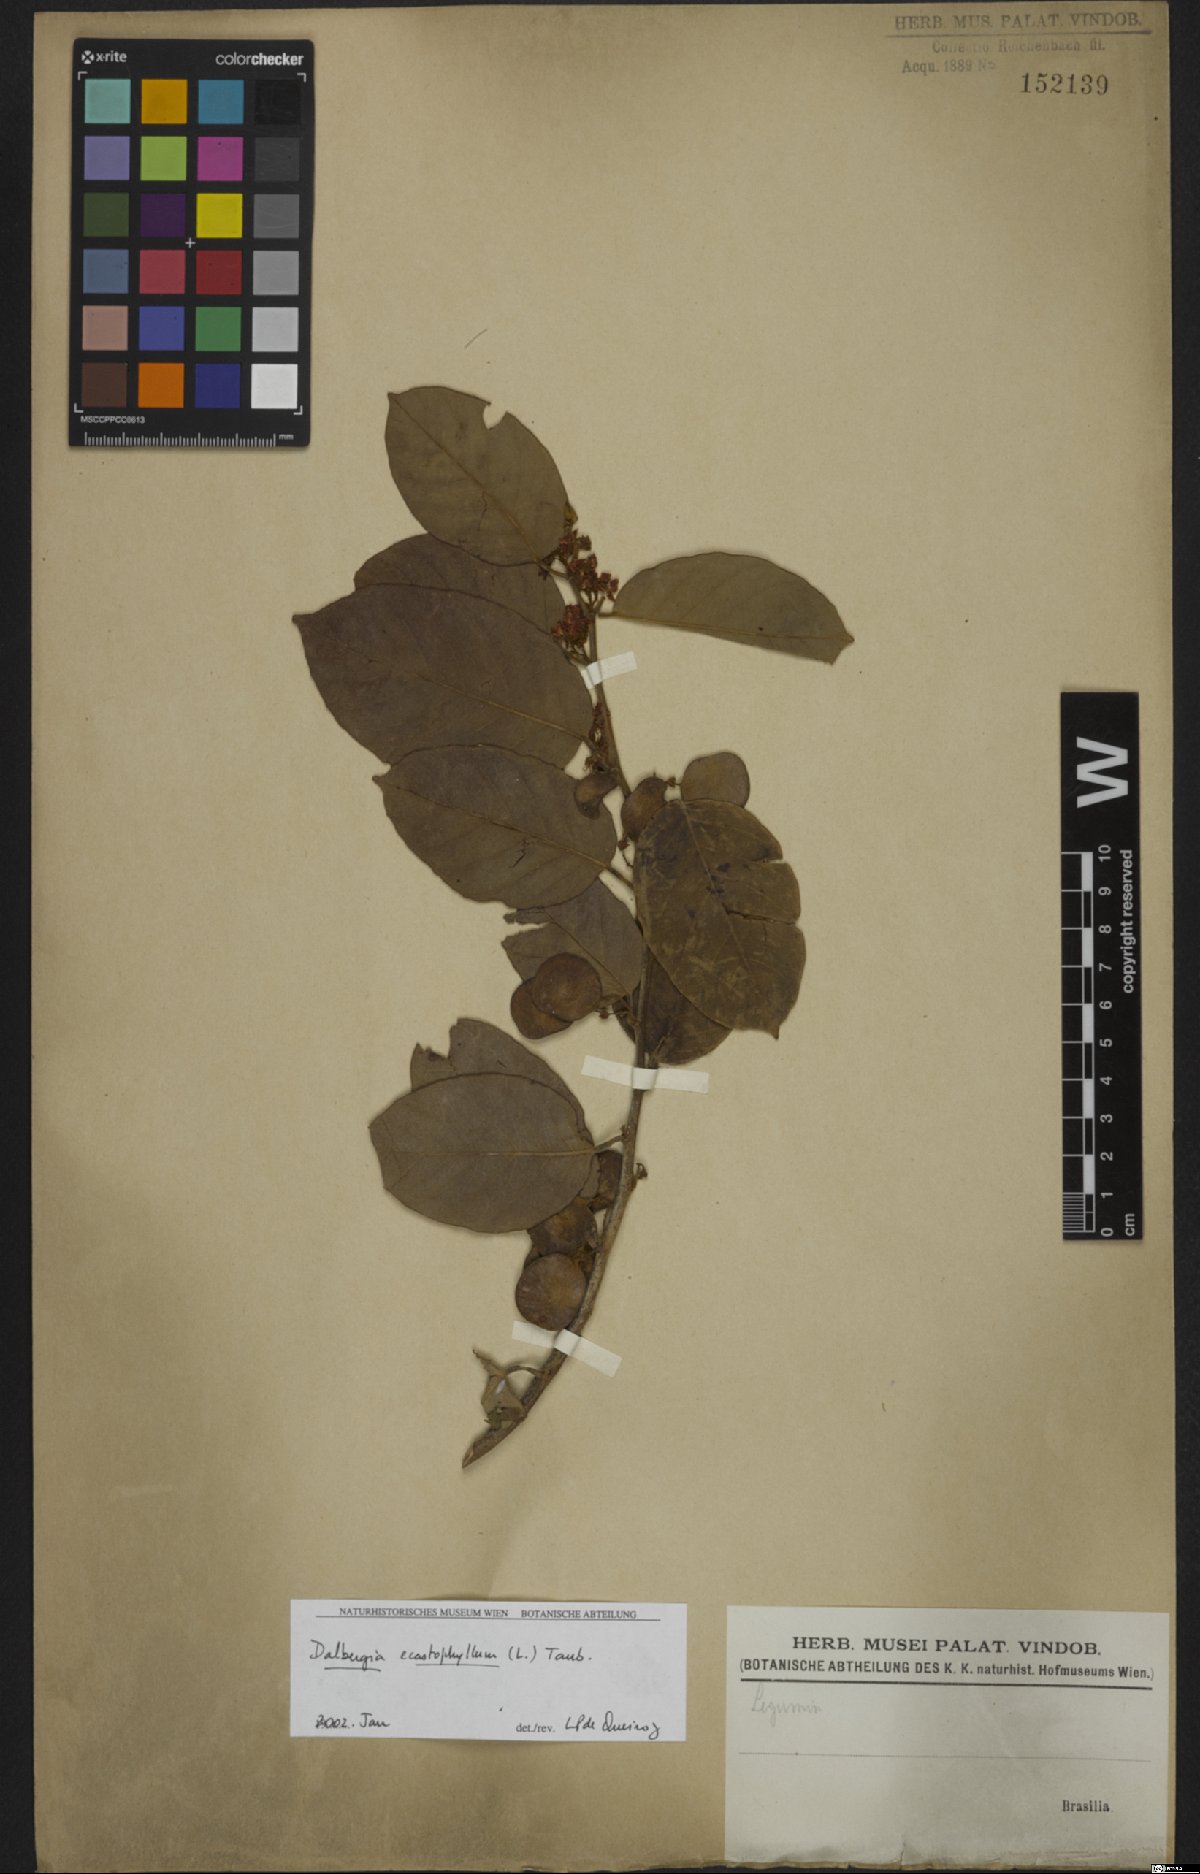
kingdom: Plantae
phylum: Tracheophyta
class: Magnoliopsida
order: Fabales
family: Fabaceae
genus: Dalbergia
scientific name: Dalbergia ecastaphyllum
